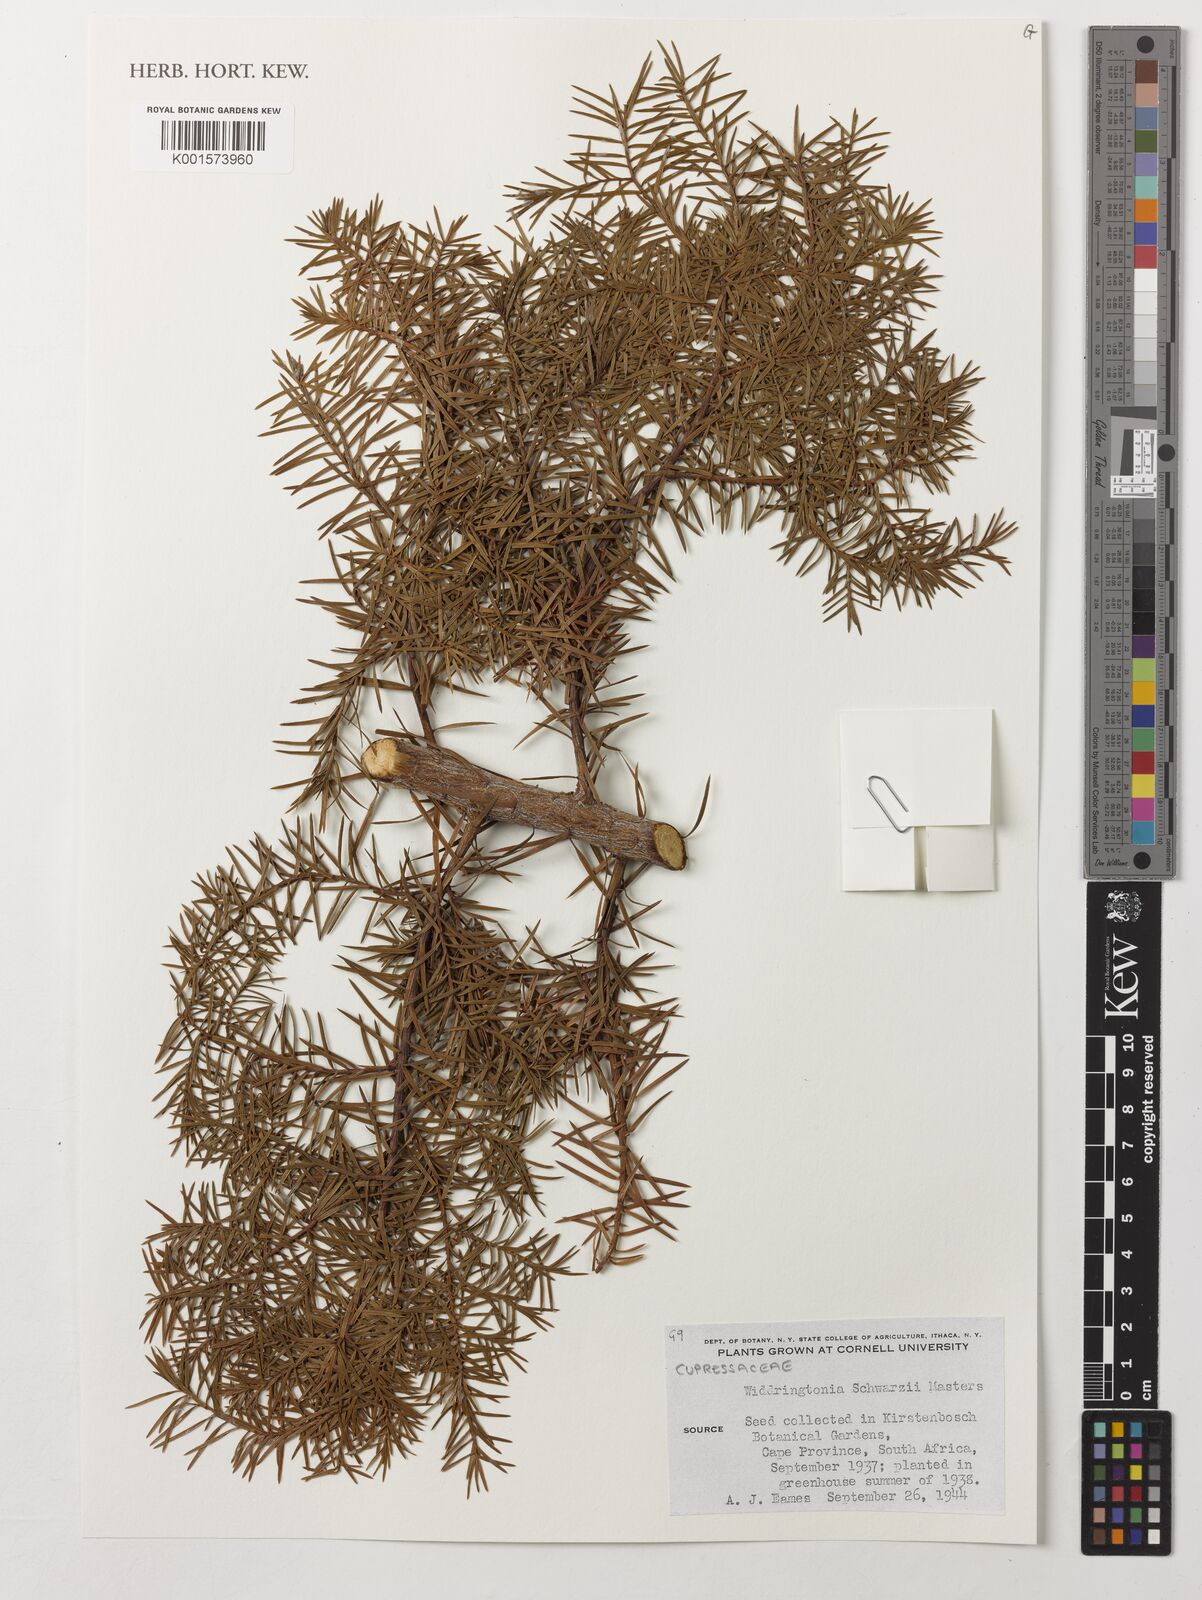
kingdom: Plantae
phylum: Tracheophyta
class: Pinopsida
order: Pinales
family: Cupressaceae
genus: Widdringtonia
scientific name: Widdringtonia schwarzii
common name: Baviaans cedar
